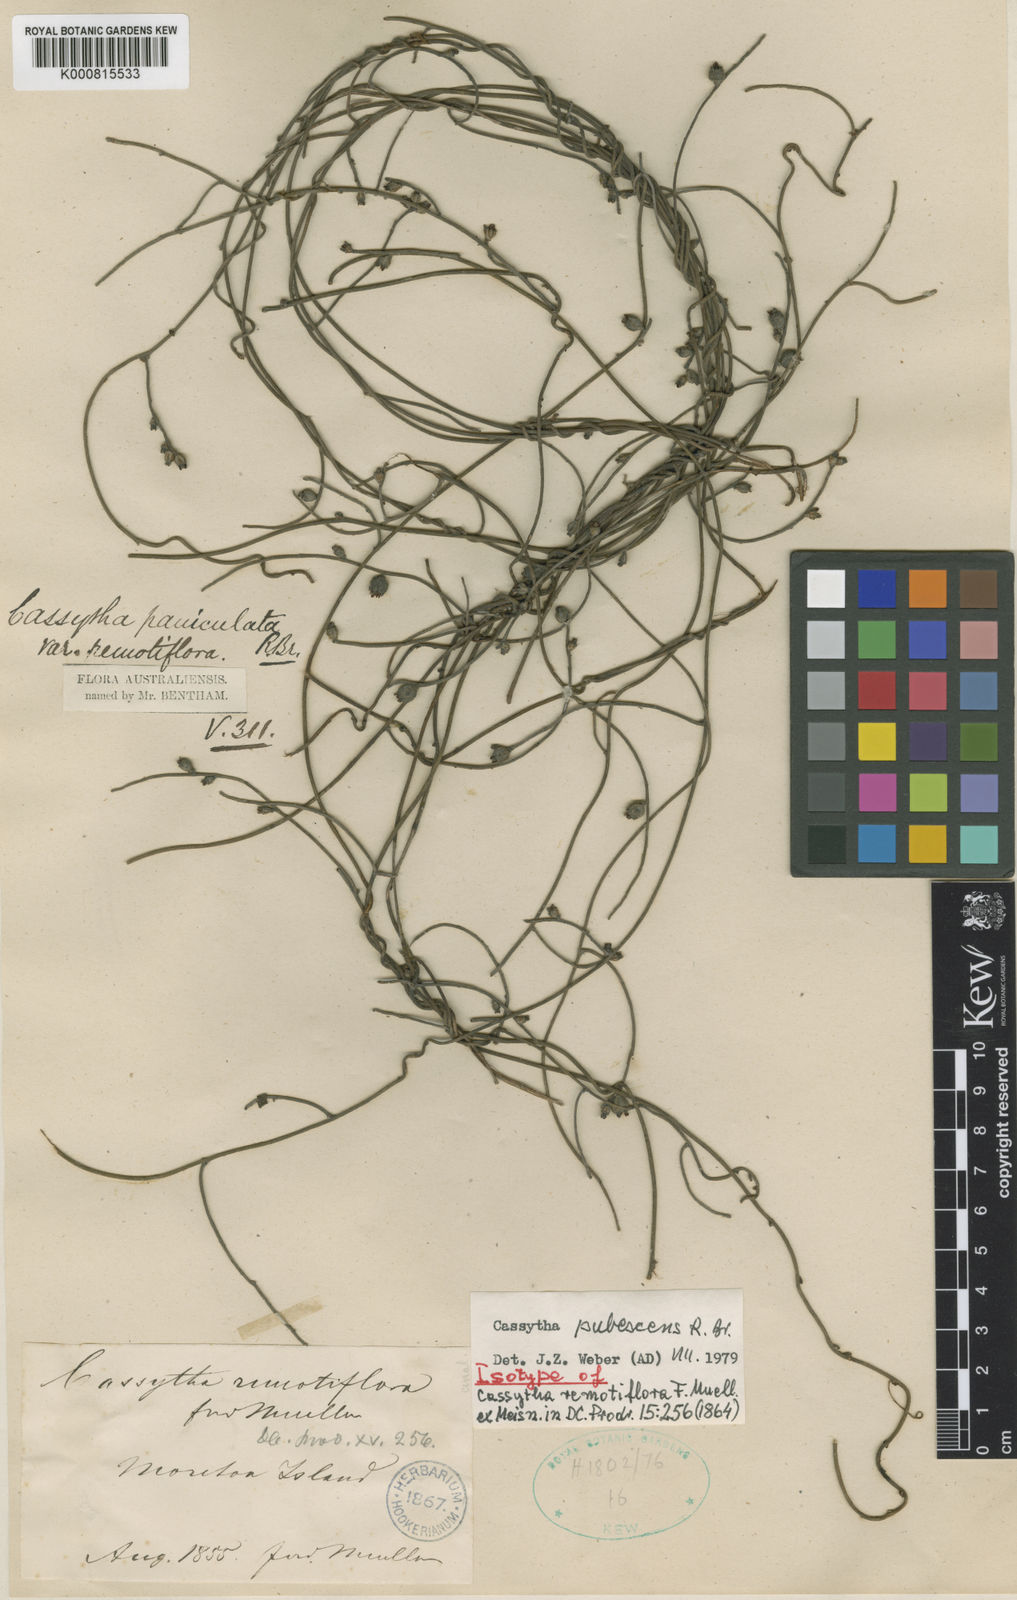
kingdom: Plantae
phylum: Tracheophyta
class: Magnoliopsida
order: Laurales
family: Lauraceae
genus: Cassytha
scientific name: Cassytha pubescens
